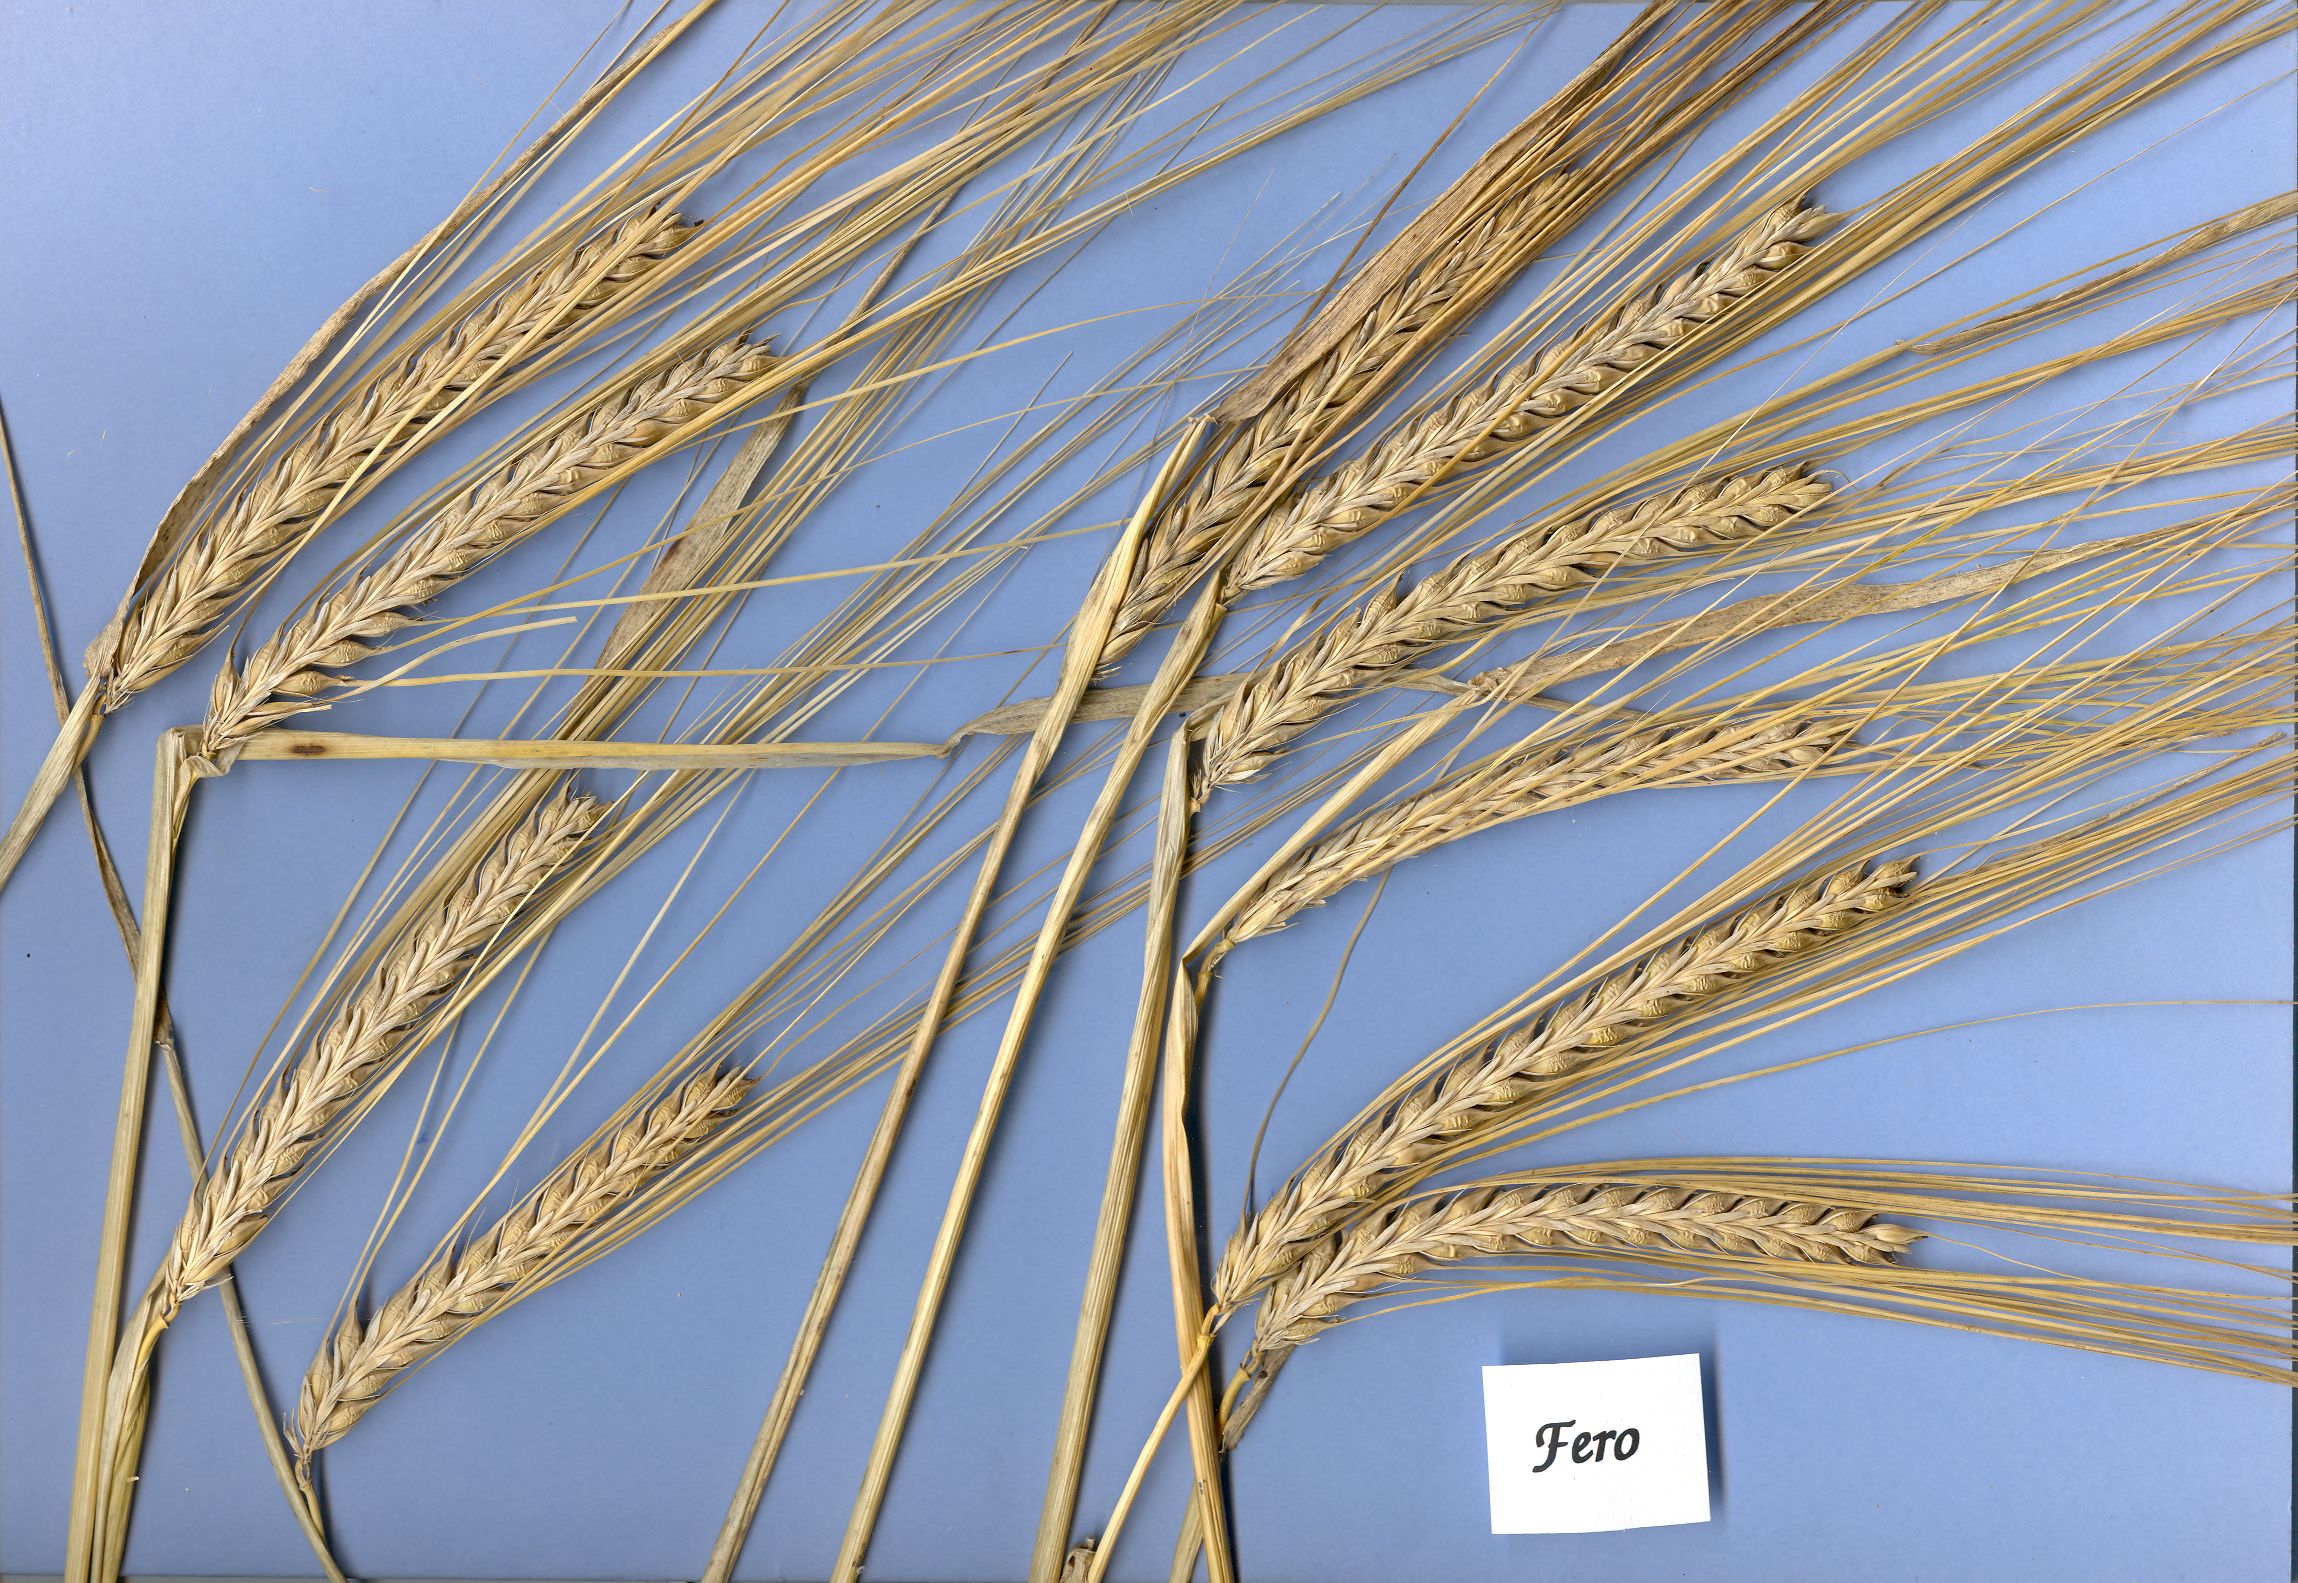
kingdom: Plantae
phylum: Tracheophyta
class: Liliopsida
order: Poales
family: Poaceae
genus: Hordeum
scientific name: Hordeum vulgare
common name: Common barley
